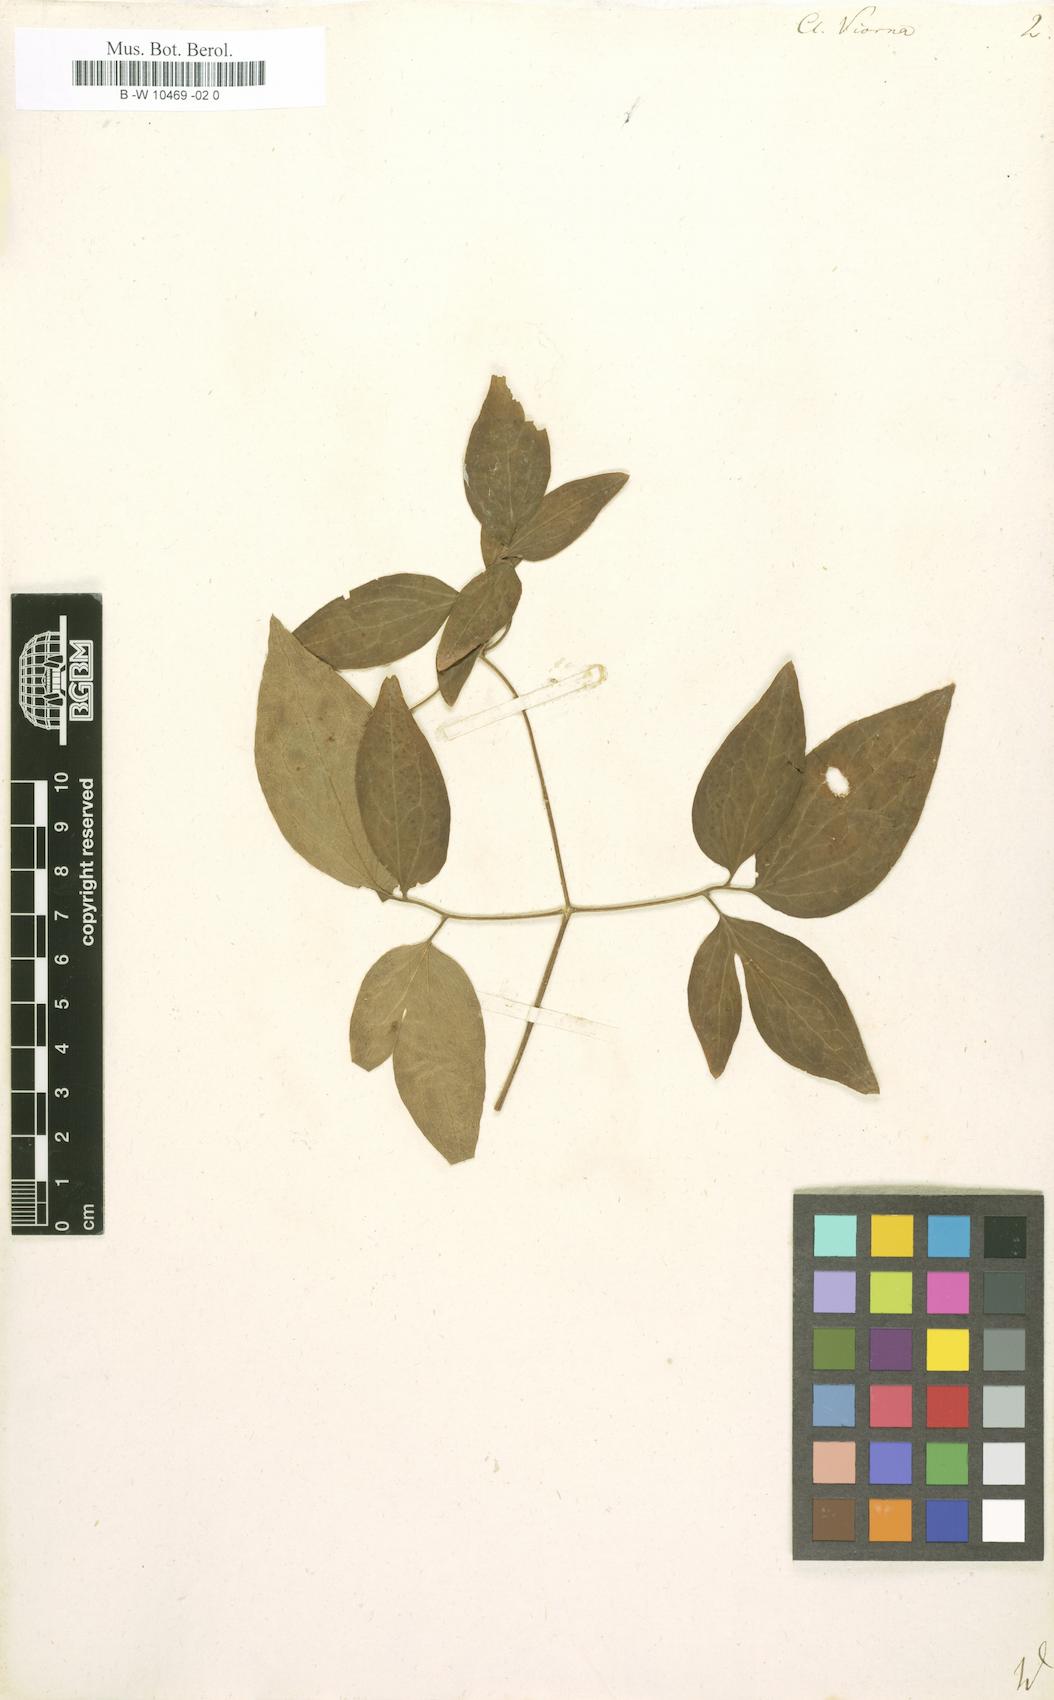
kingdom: Plantae
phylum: Tracheophyta
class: Magnoliopsida
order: Ranunculales
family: Ranunculaceae
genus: Clematis
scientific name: Clematis viorna
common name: Leather-flower
